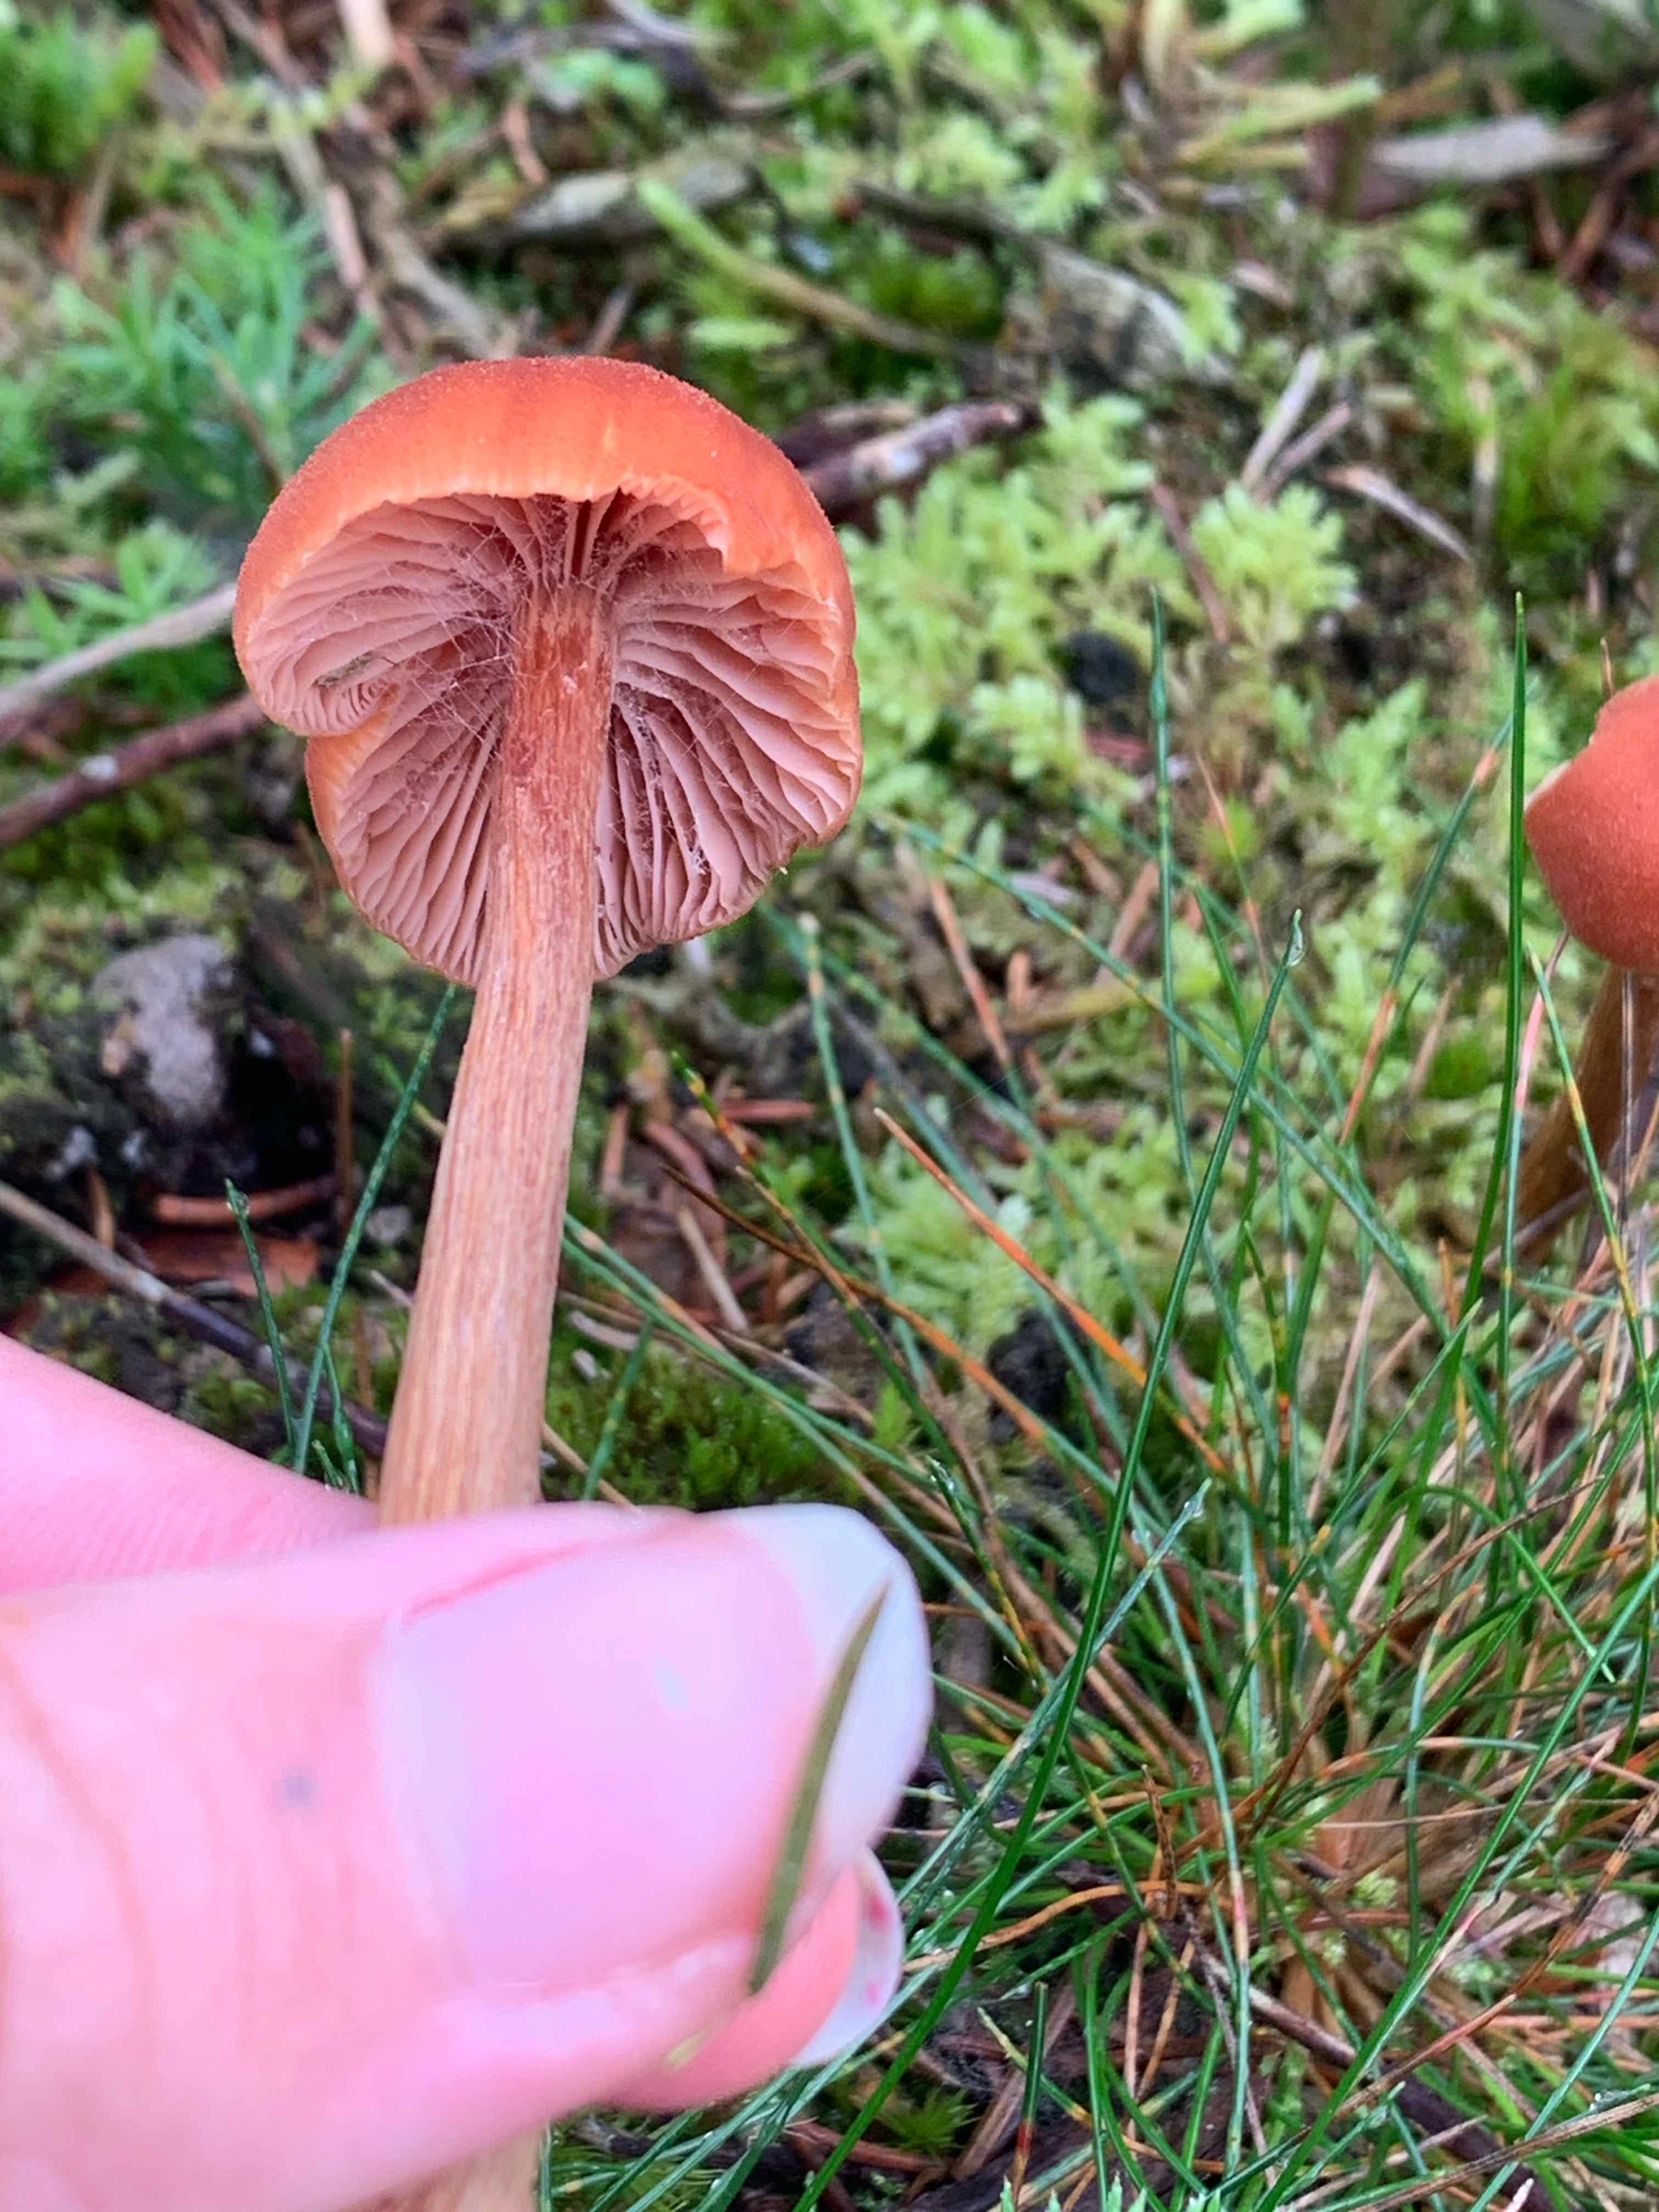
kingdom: Fungi
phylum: Basidiomycota
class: Agaricomycetes
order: Agaricales
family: Hydnangiaceae
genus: Laccaria
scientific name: Laccaria laccata
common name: rød ametysthat
